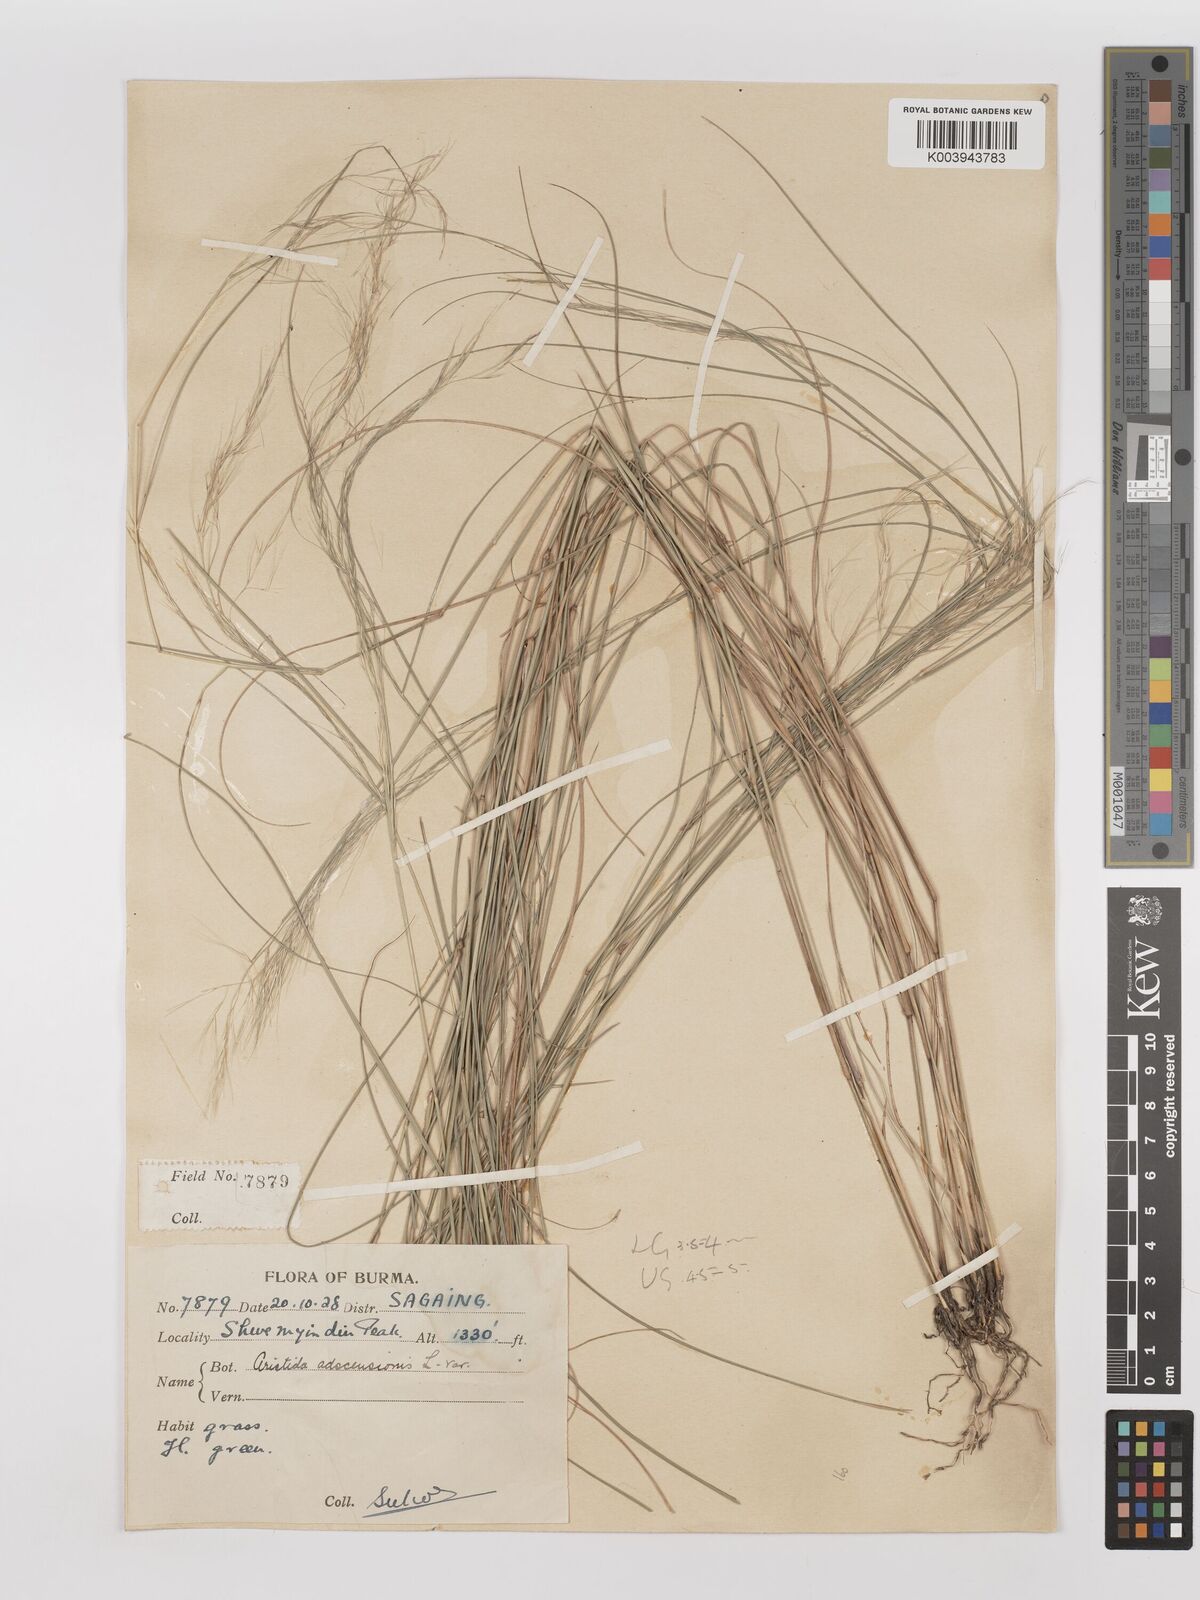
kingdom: Plantae
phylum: Tracheophyta
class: Liliopsida
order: Poales
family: Poaceae
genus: Aristida
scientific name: Aristida adscensionis
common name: Sixweeks threeawn
